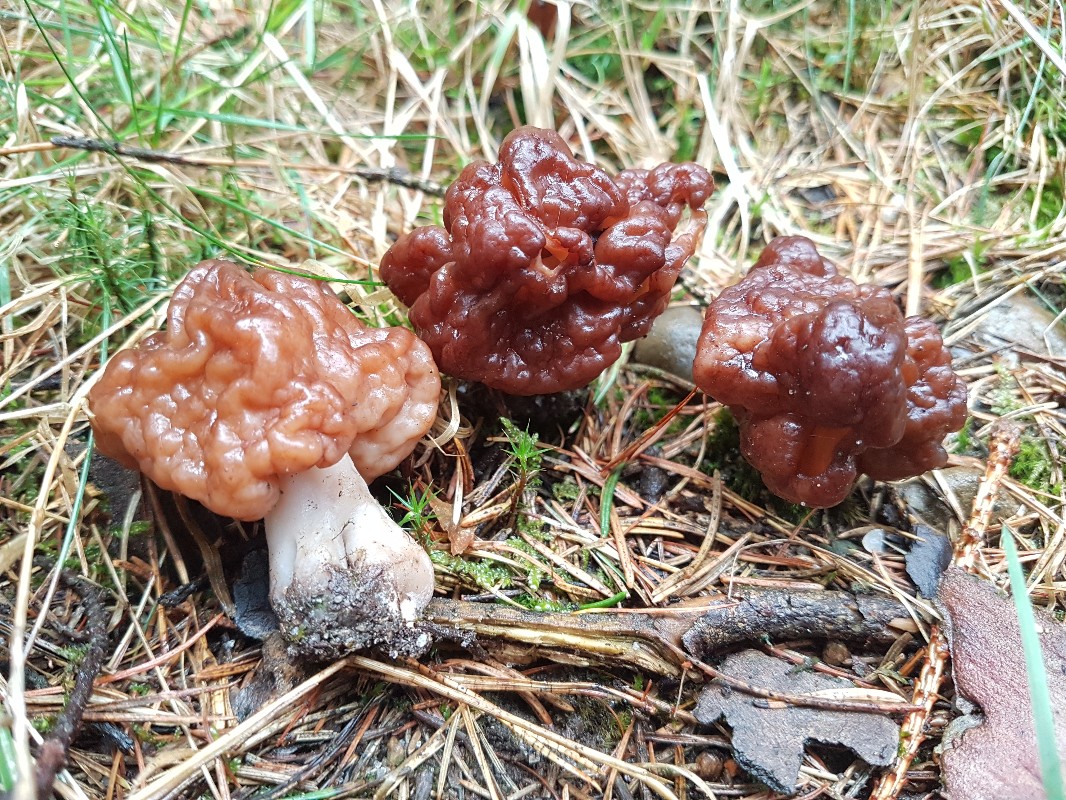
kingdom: Fungi
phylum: Ascomycota
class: Pezizomycetes
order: Pezizales
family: Discinaceae
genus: Gyromitra
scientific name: Gyromitra esculenta
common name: ægte stenmorkel
